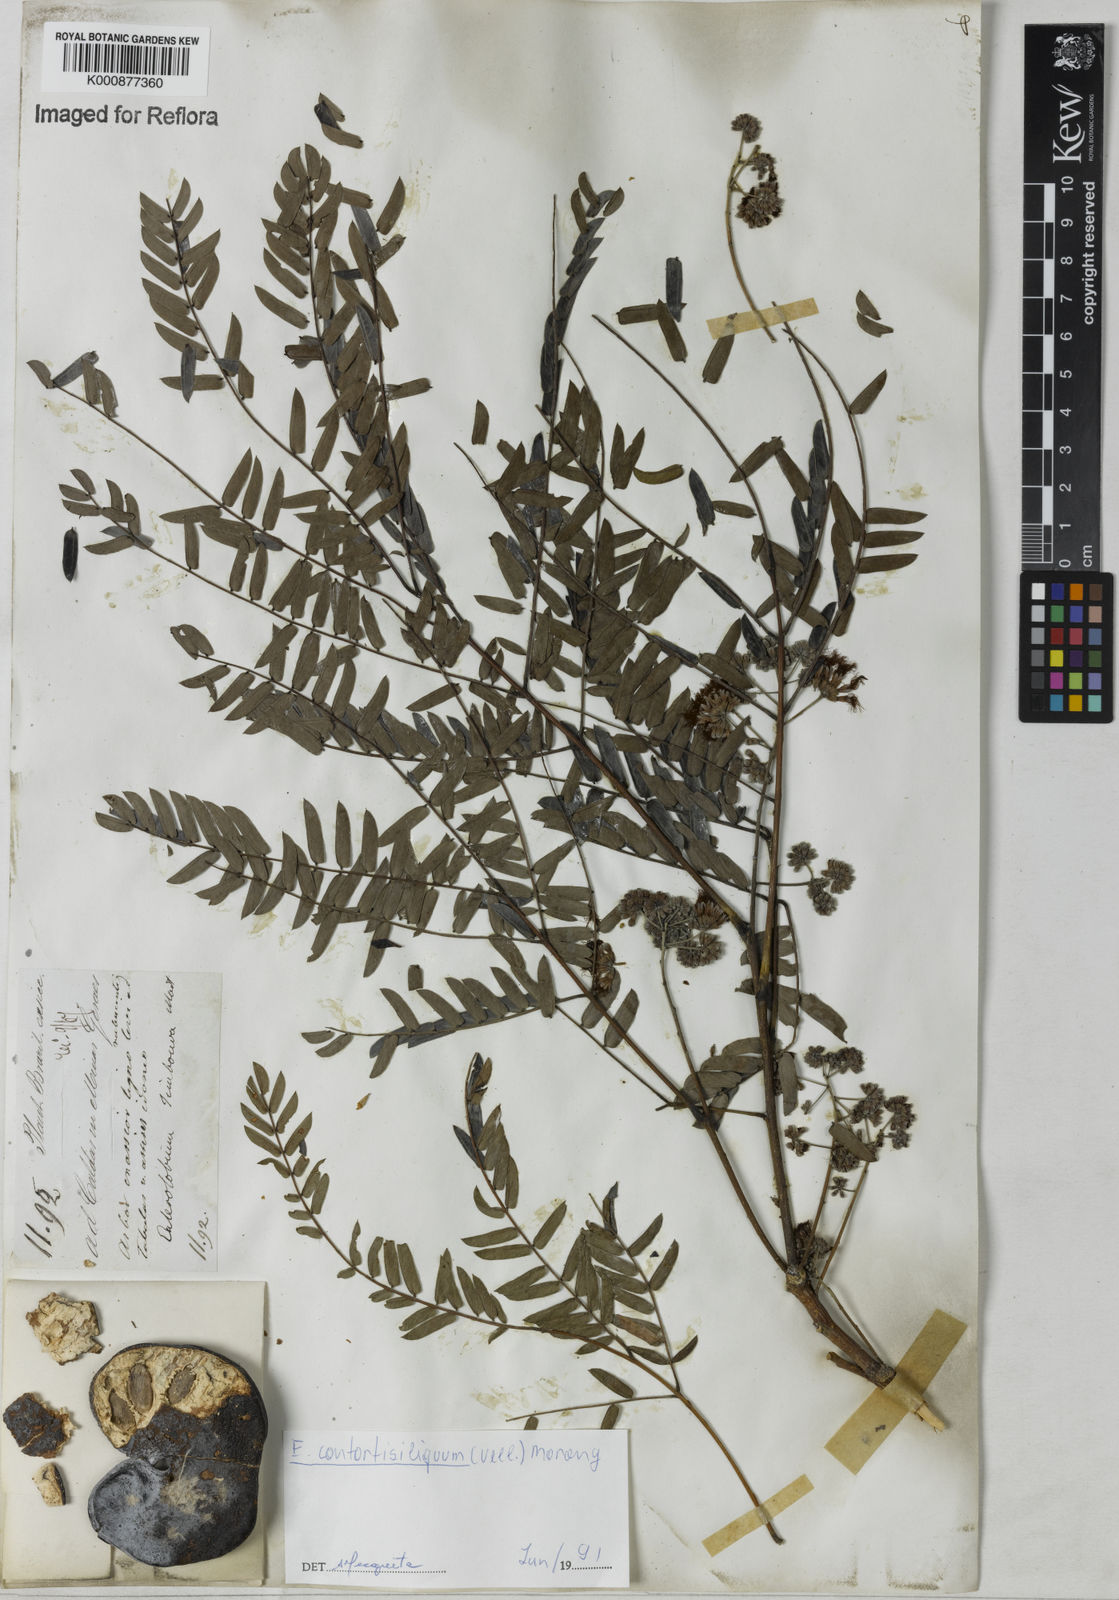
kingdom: Plantae
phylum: Tracheophyta
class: Magnoliopsida
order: Fabales
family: Fabaceae
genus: Enterolobium
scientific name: Enterolobium contortisiliquum
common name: Pacara earpod tree
